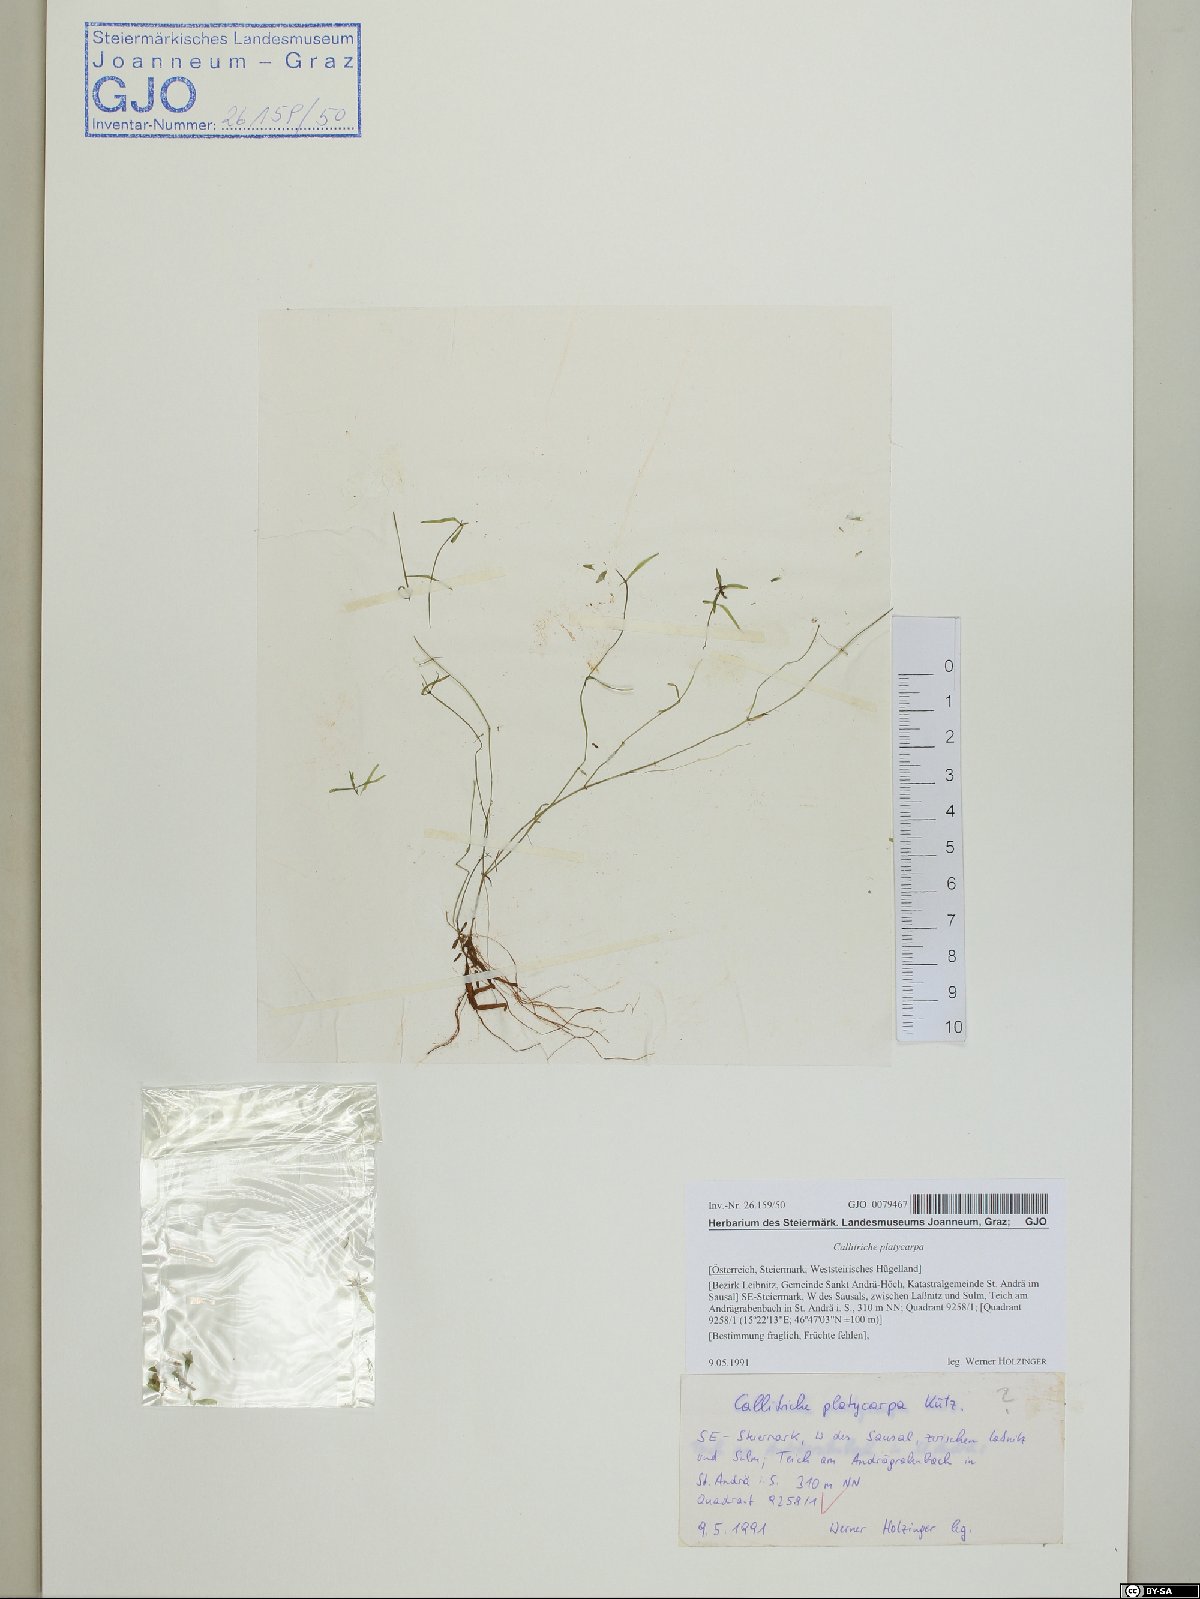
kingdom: Plantae
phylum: Tracheophyta
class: Magnoliopsida
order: Lamiales
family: Plantaginaceae
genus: Callitriche
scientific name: Callitriche platycarpa
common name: Various-leaved water-starwort
